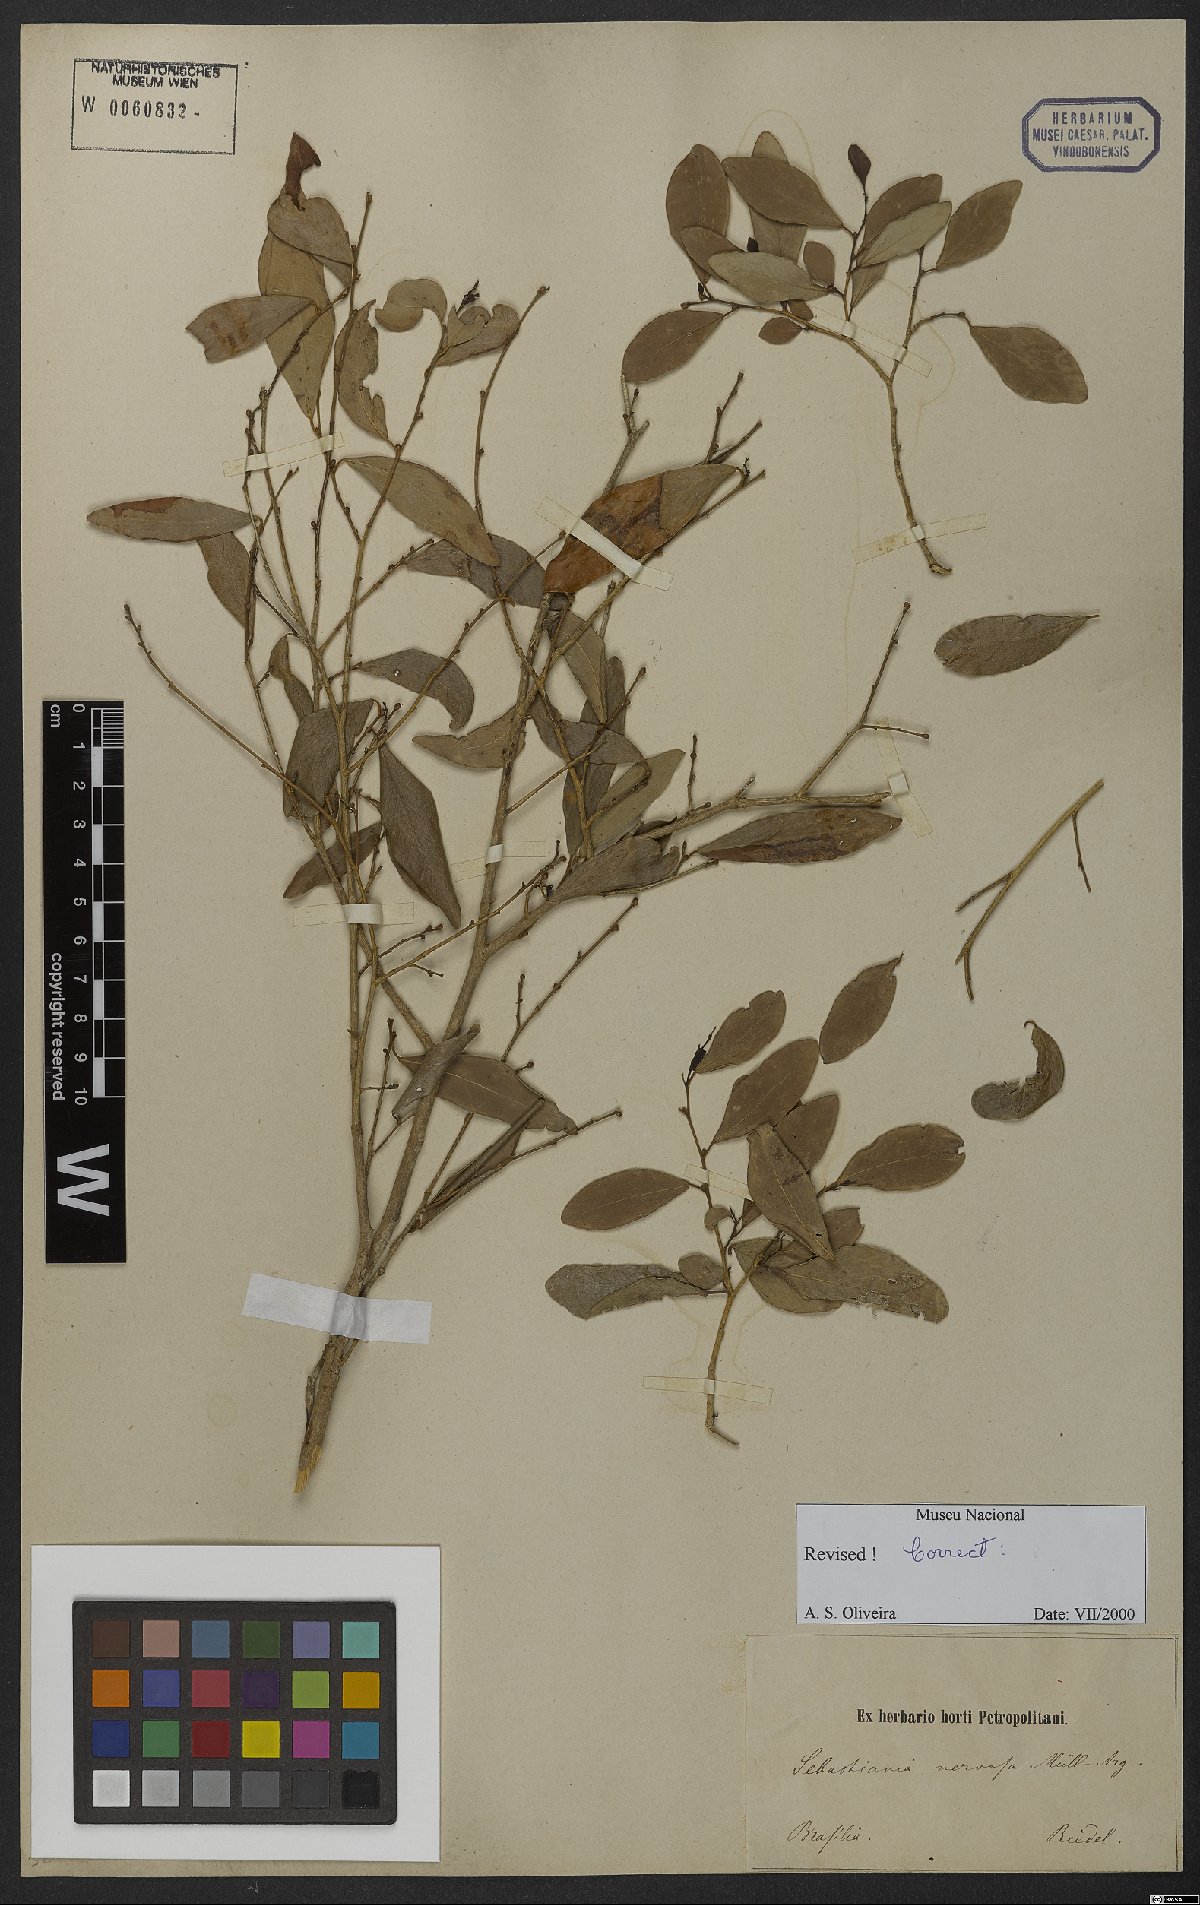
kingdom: Plantae
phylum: Tracheophyta
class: Magnoliopsida
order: Malpighiales
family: Euphorbiaceae
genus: Gymnanthes
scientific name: Gymnanthes nervosa
